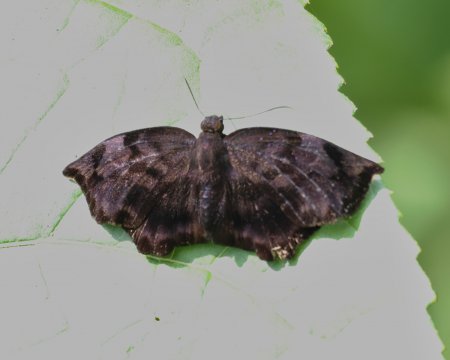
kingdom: Animalia
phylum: Arthropoda
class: Insecta
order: Lepidoptera
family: Hesperiidae
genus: Achlyodes
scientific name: Achlyodes busirus
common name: Giant Sicklewing
